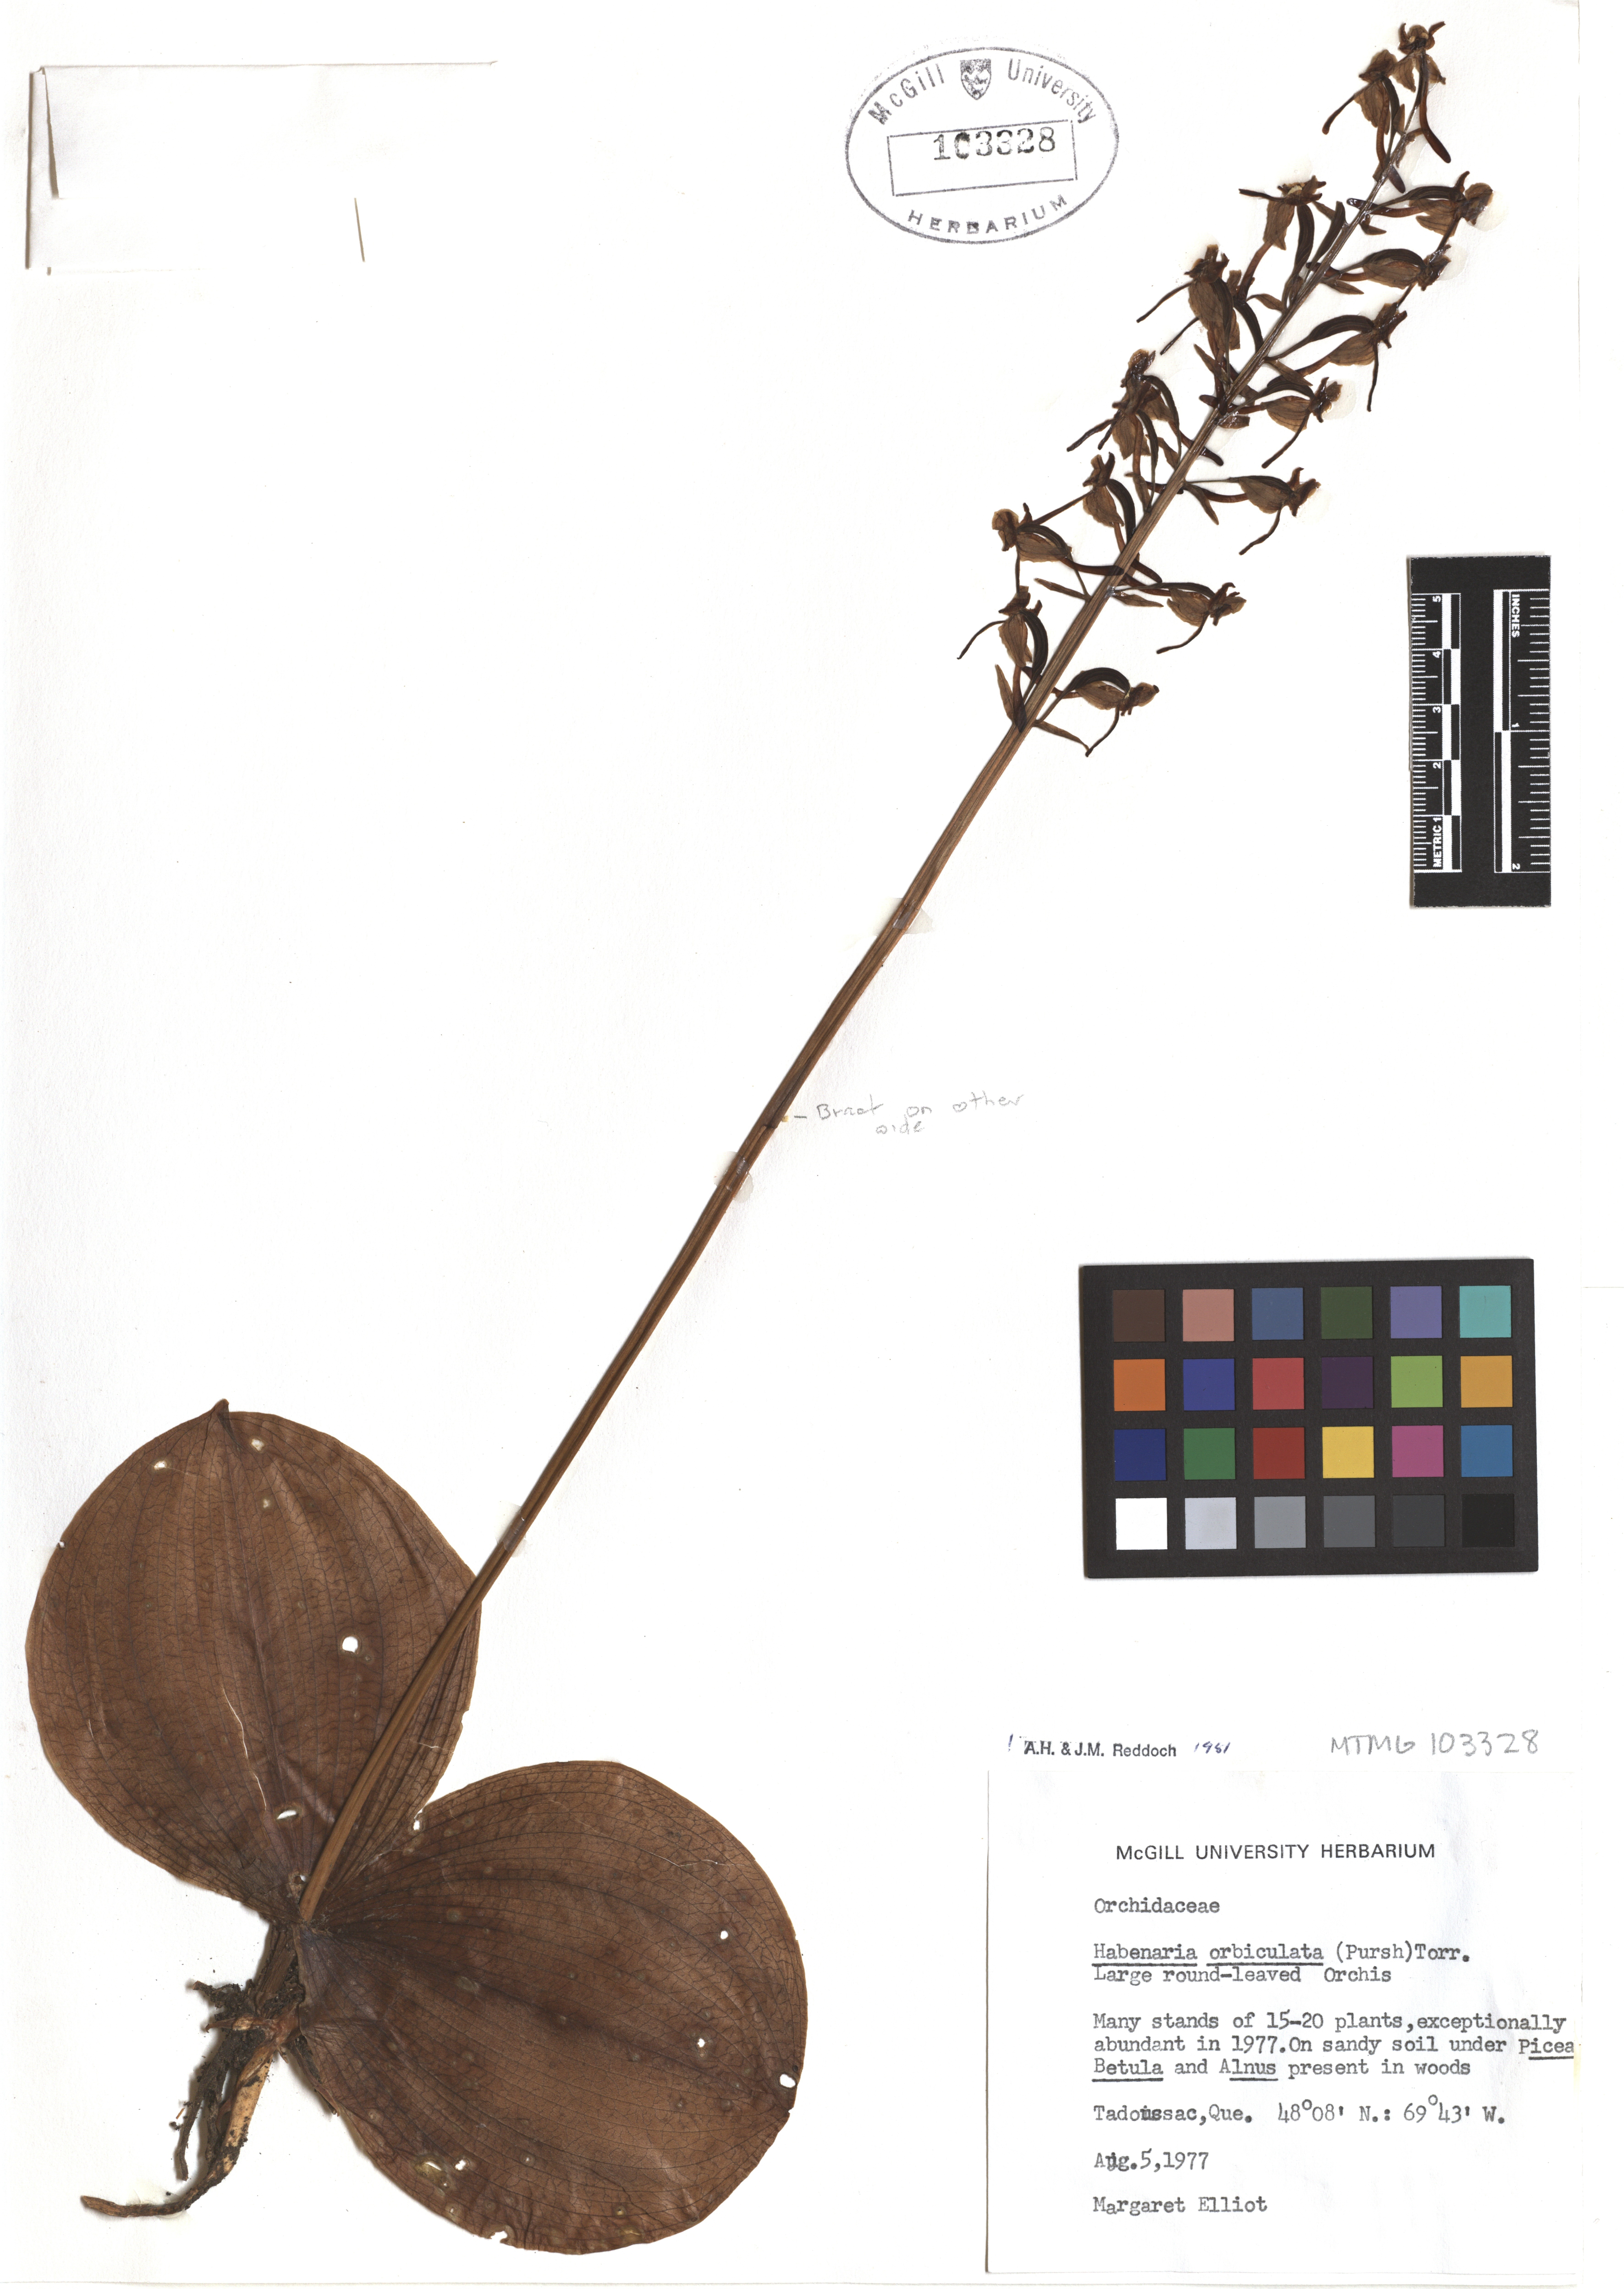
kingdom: Plantae
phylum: Tracheophyta
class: Liliopsida
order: Asparagales
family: Orchidaceae
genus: Platanthera
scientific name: Platanthera orbiculata
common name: Large round-leaved orchid
